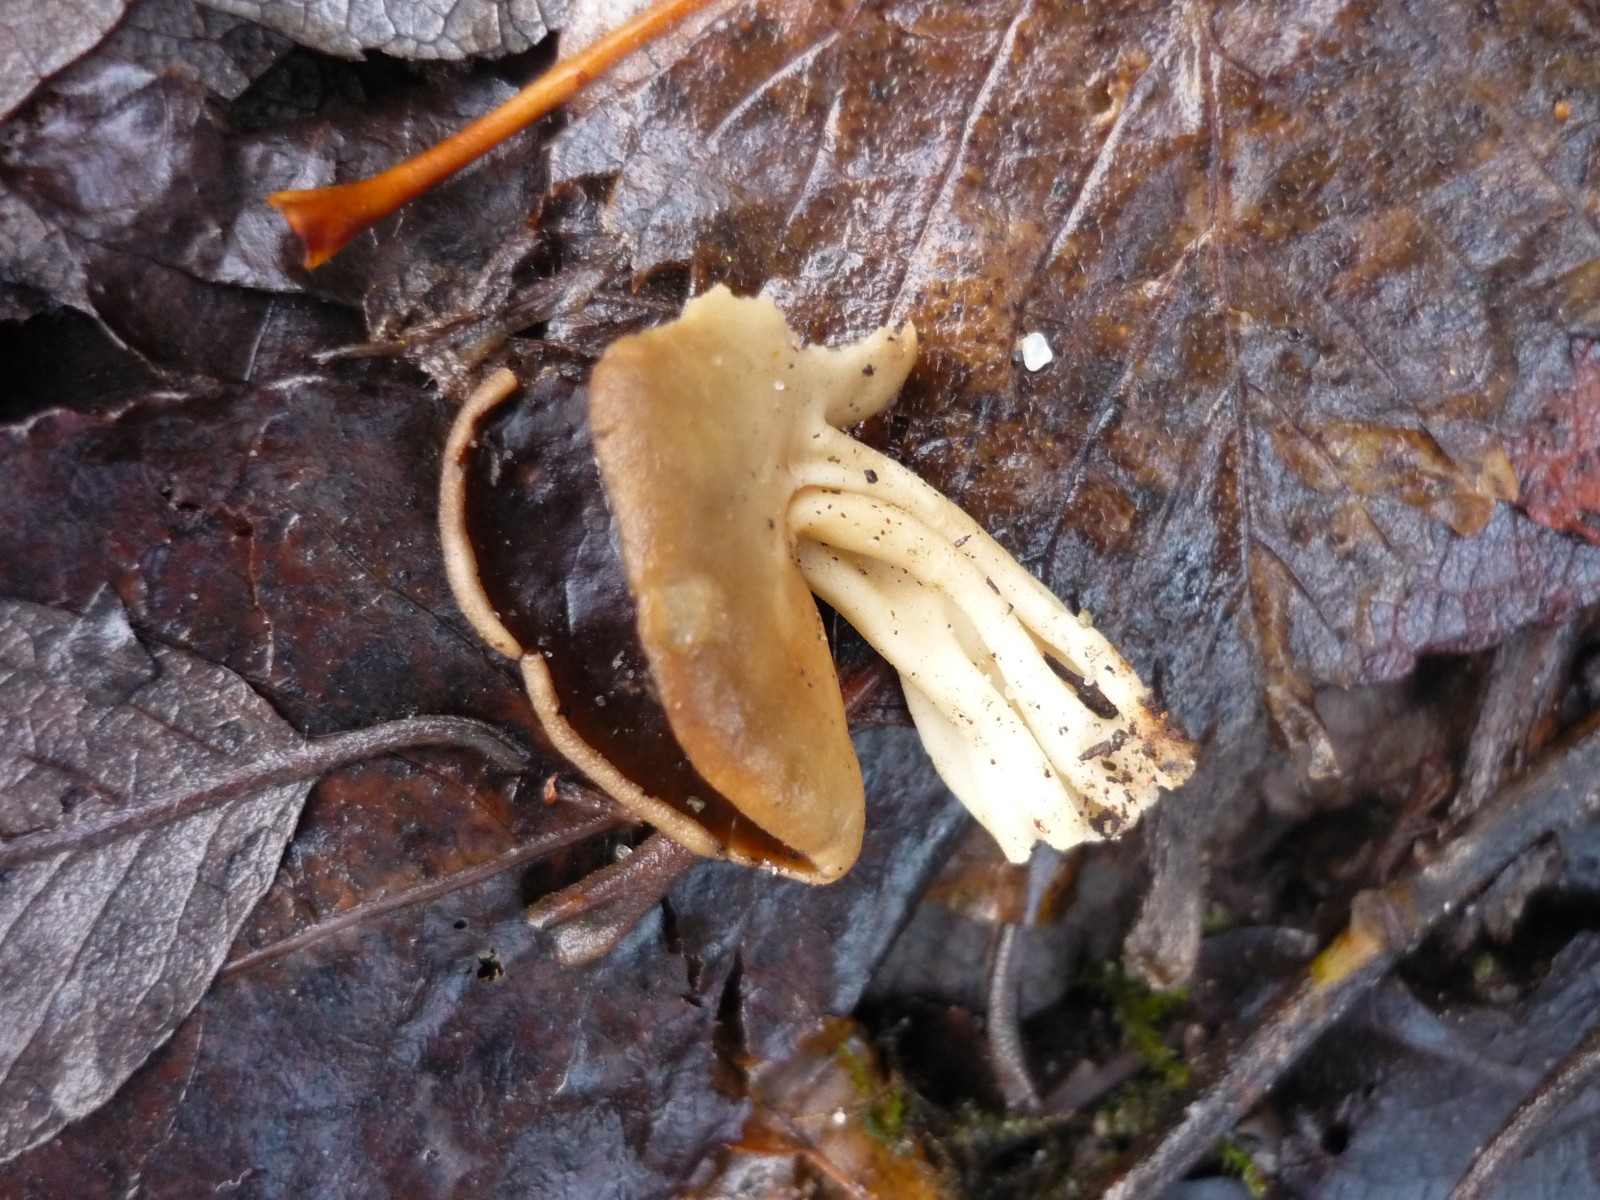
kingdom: Fungi
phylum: Ascomycota
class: Pezizomycetes
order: Pezizales
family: Helvellaceae
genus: Helvella
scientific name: Helvella solitaria
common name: Quélets foldhat
